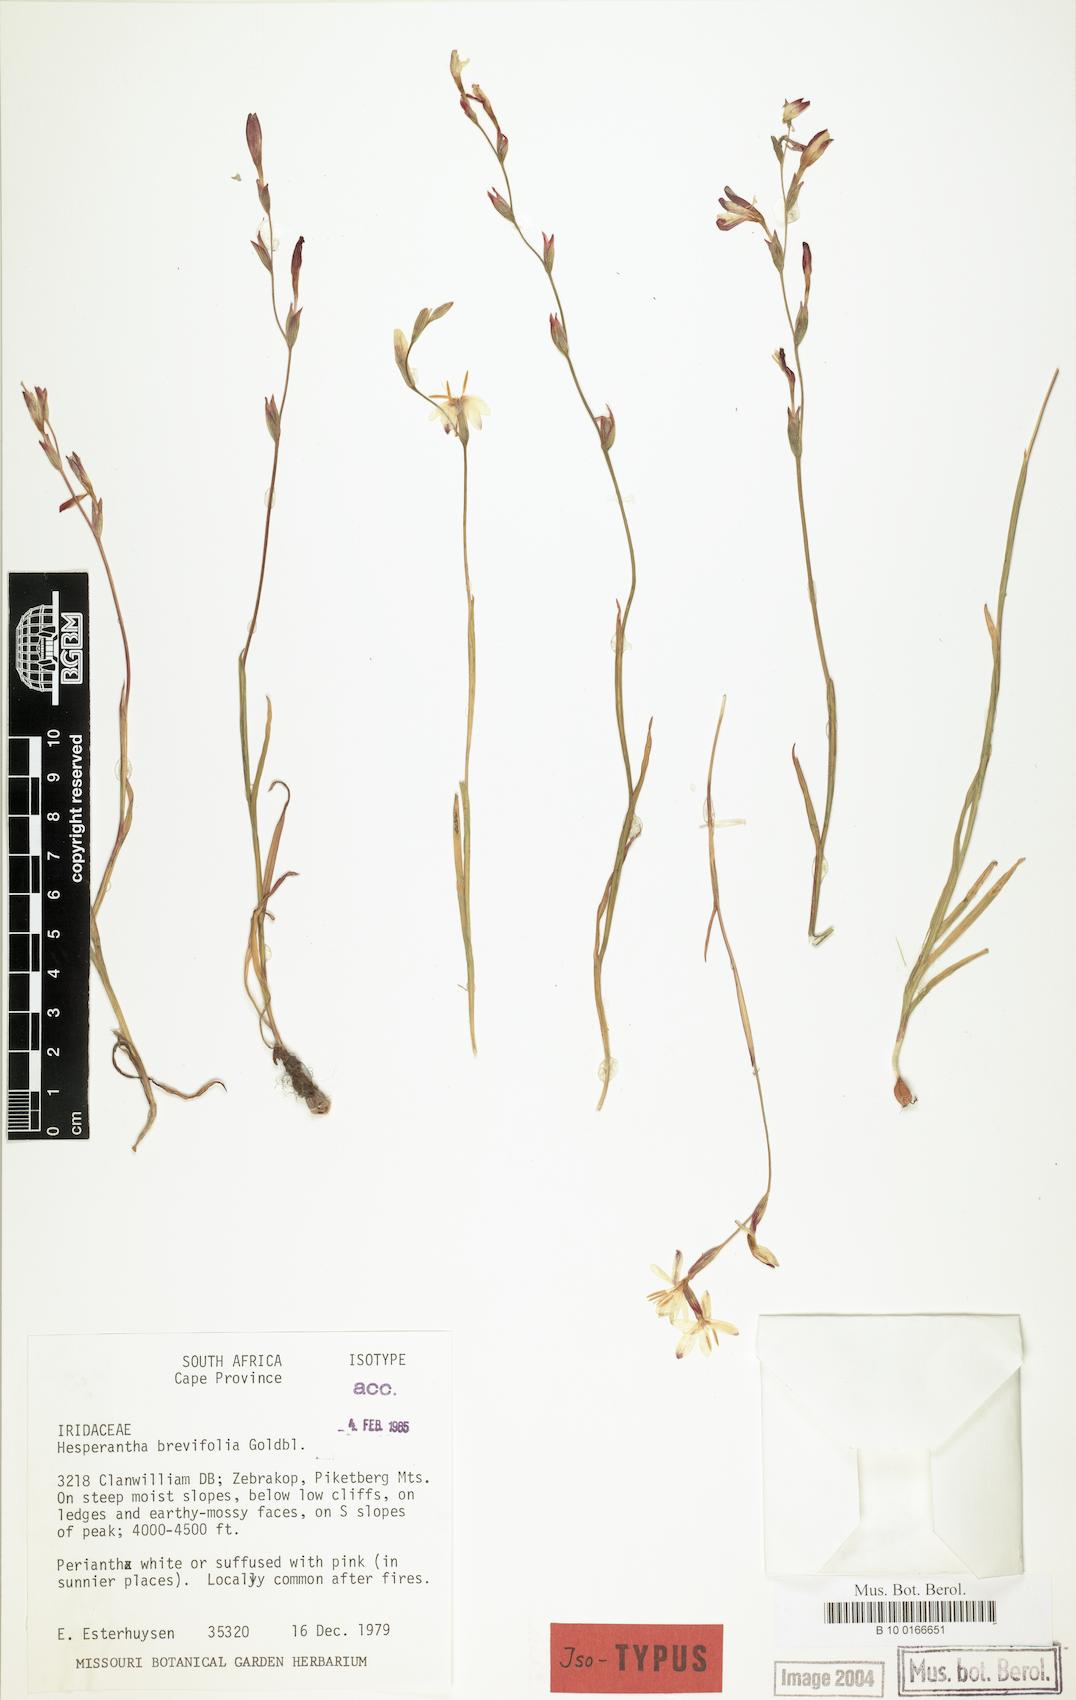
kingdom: Plantae
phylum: Tracheophyta
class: Liliopsida
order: Asparagales
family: Iridaceae
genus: Hesperantha
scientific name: Hesperantha brevifolia
